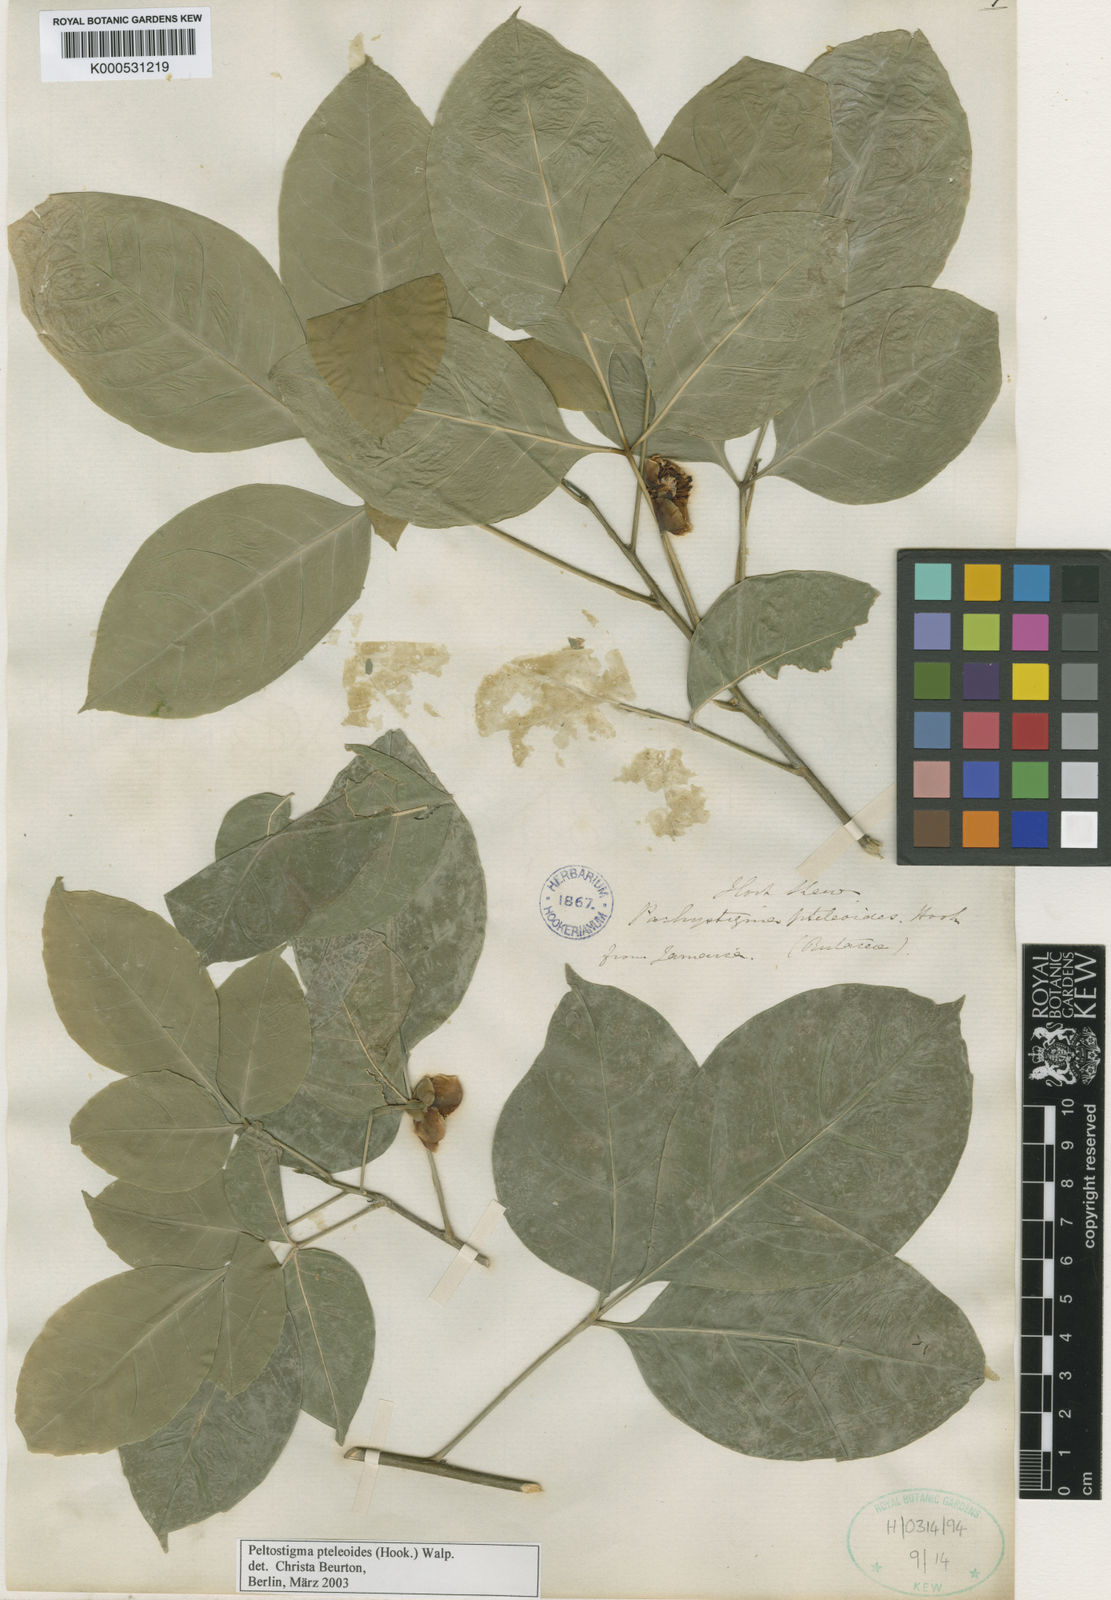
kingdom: Plantae
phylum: Tracheophyta
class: Magnoliopsida
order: Sapindales
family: Rutaceae
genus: Peltostigma
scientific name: Peltostigma
